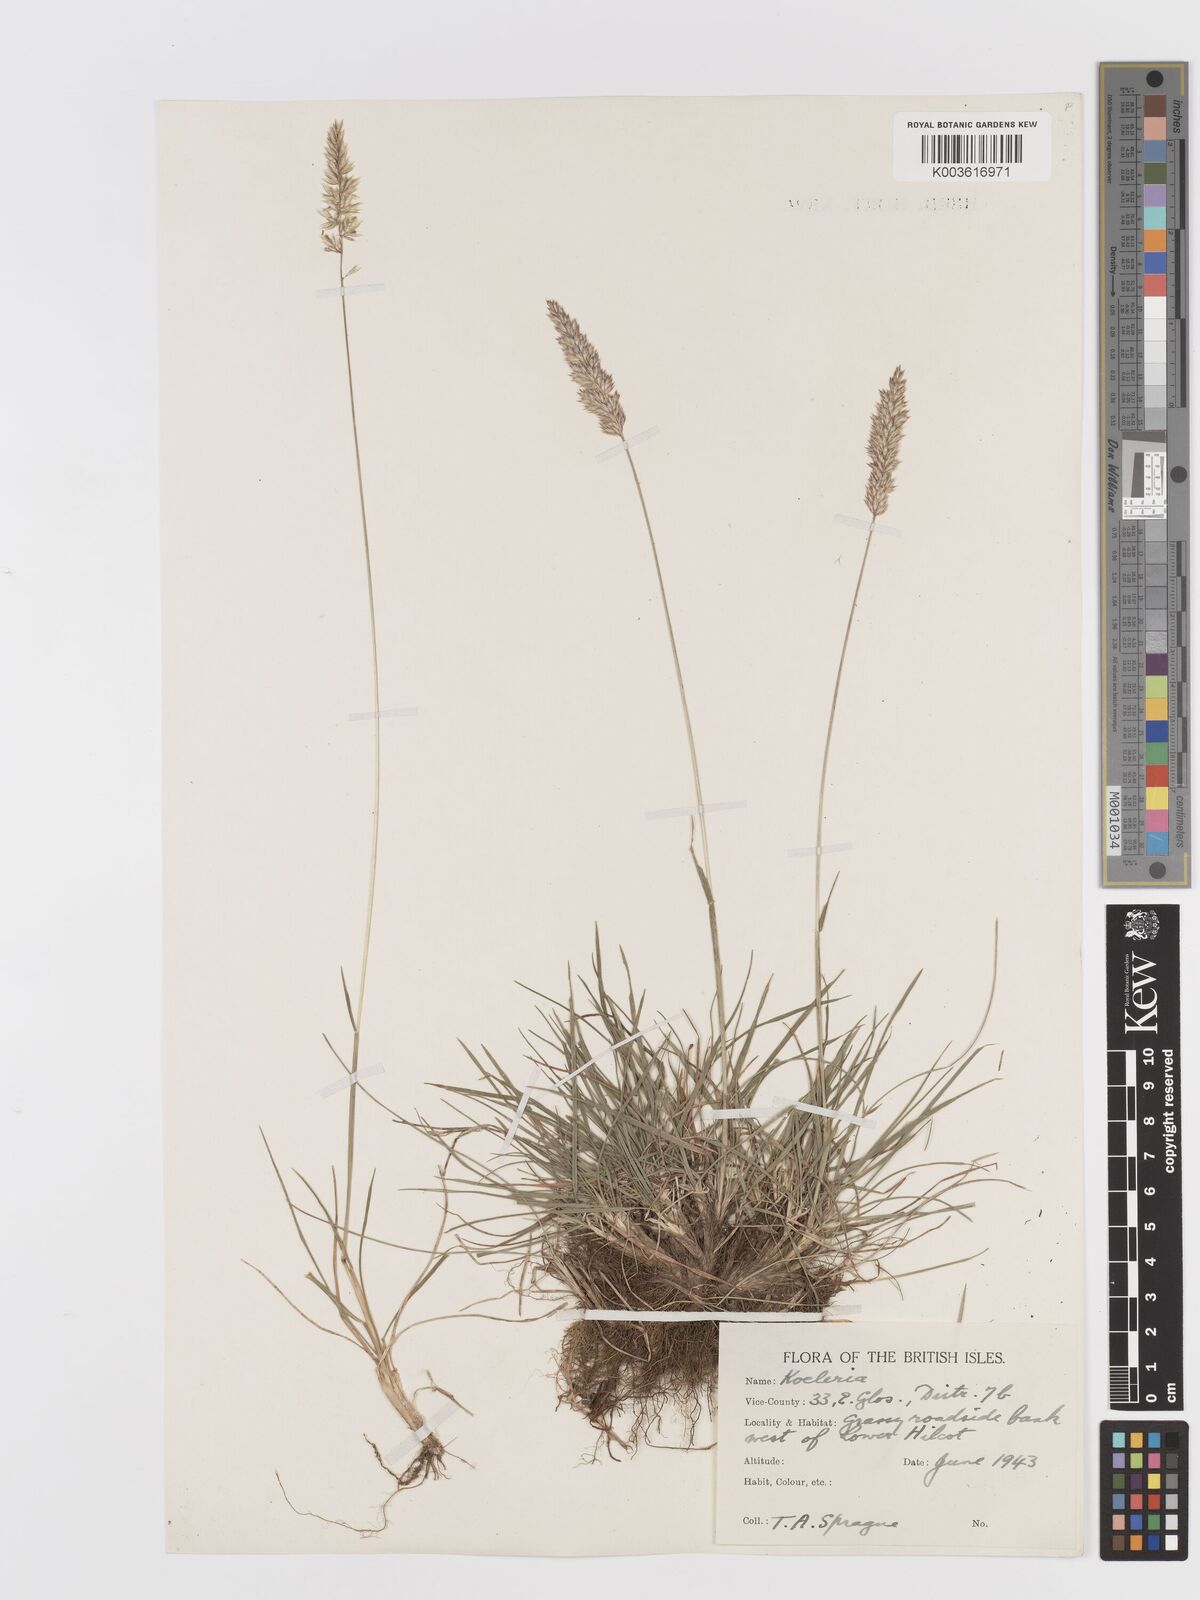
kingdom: Plantae
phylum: Tracheophyta
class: Liliopsida
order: Poales
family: Poaceae
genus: Koeleria
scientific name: Koeleria macrantha
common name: Crested hair-grass
